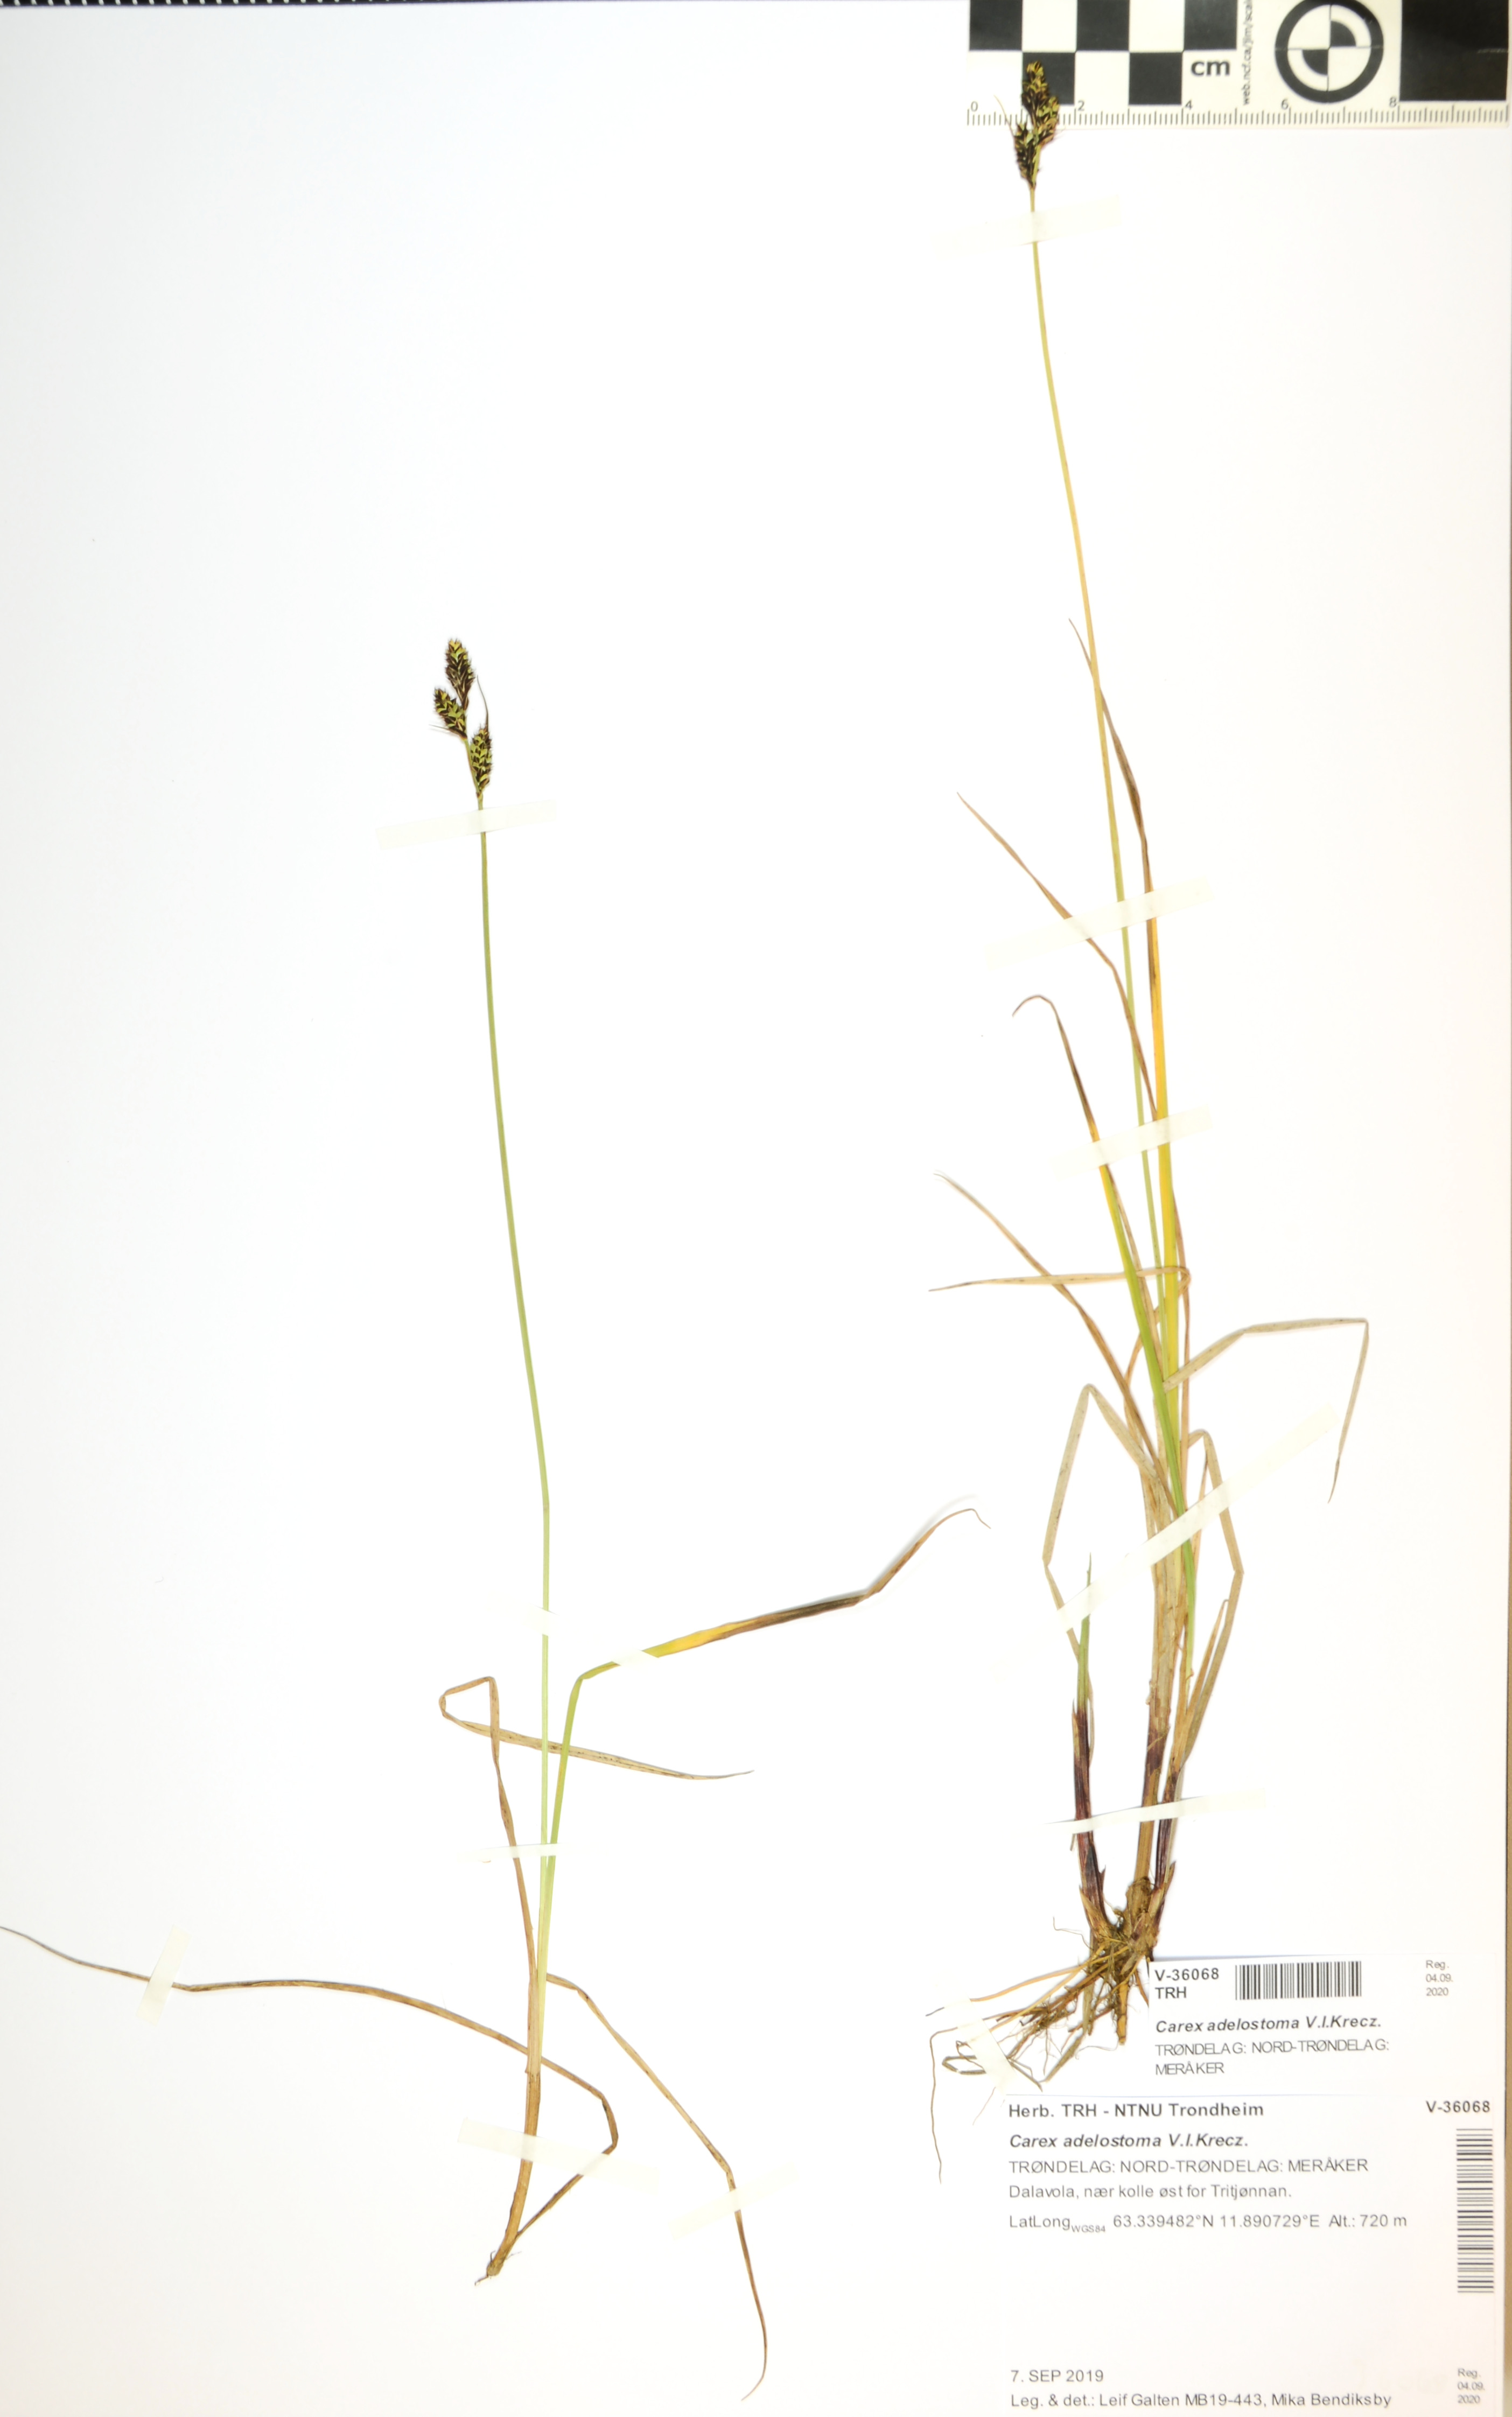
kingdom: Plantae
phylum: Tracheophyta
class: Liliopsida
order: Poales
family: Cyperaceae
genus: Carex
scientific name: Carex adelostoma
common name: Circumpolar sedge
